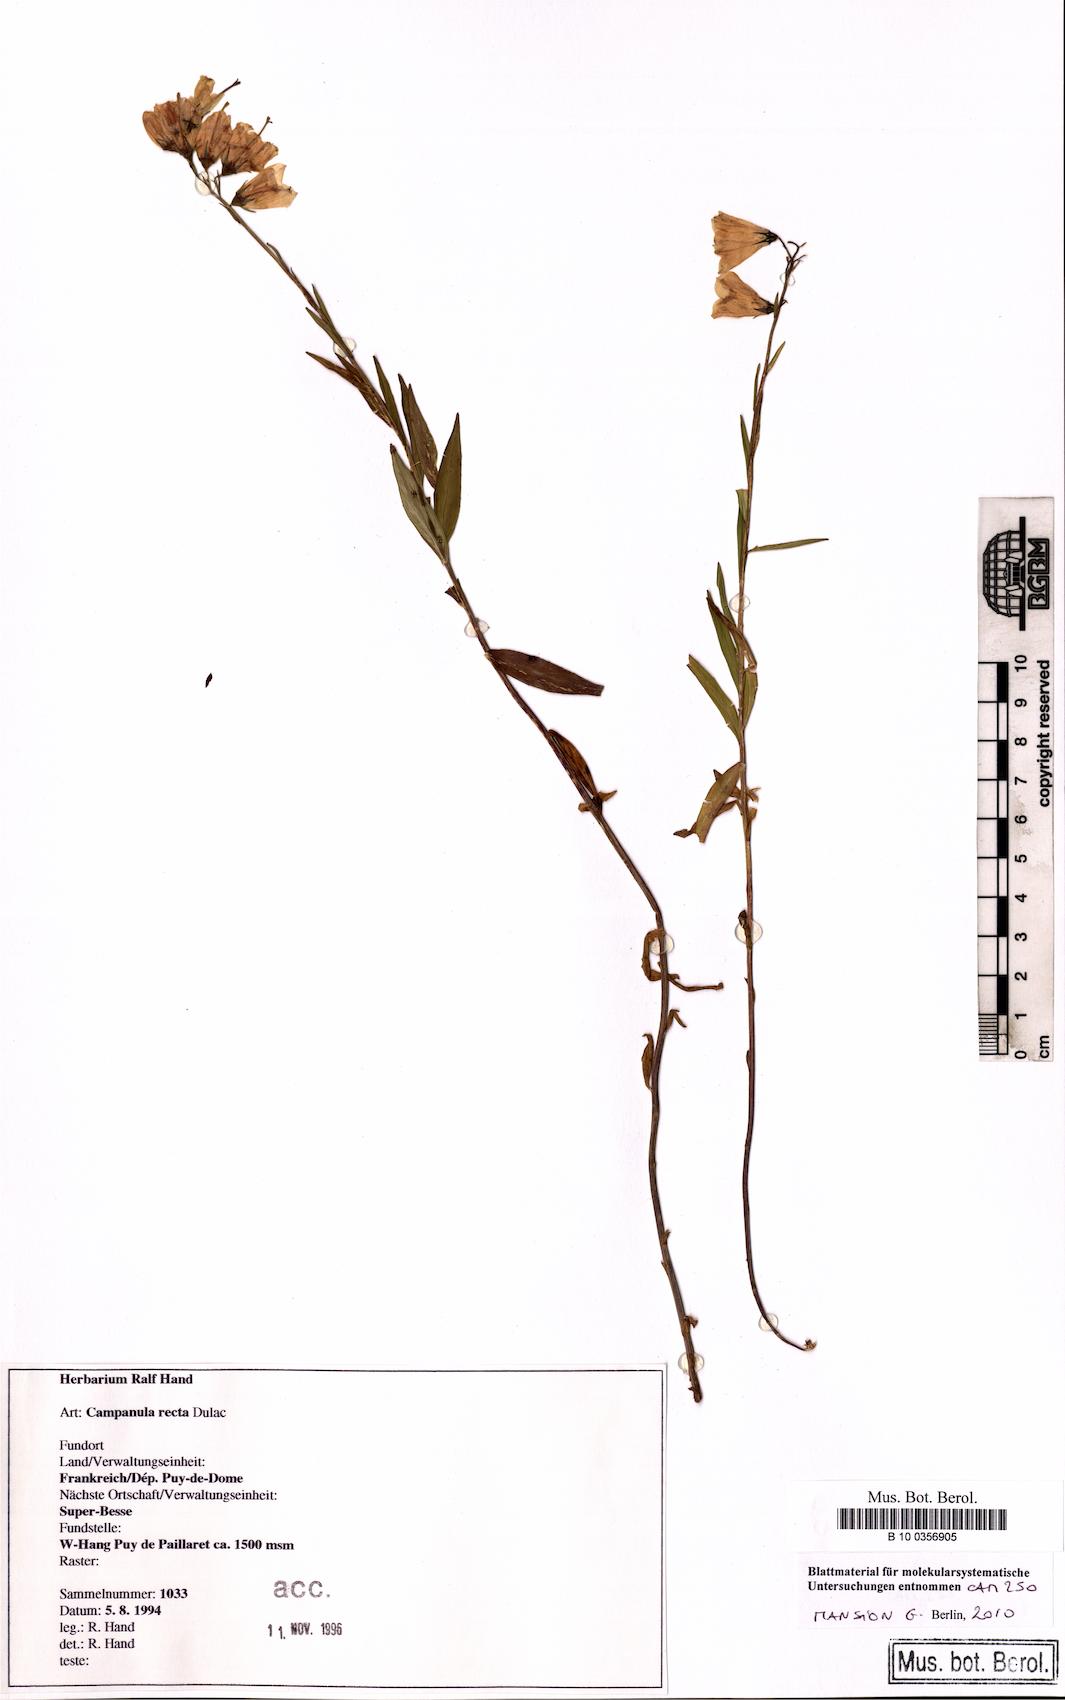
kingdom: Plantae
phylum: Tracheophyta
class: Magnoliopsida
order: Asterales
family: Campanulaceae
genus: Campanula
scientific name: Campanula scheuchzeri
